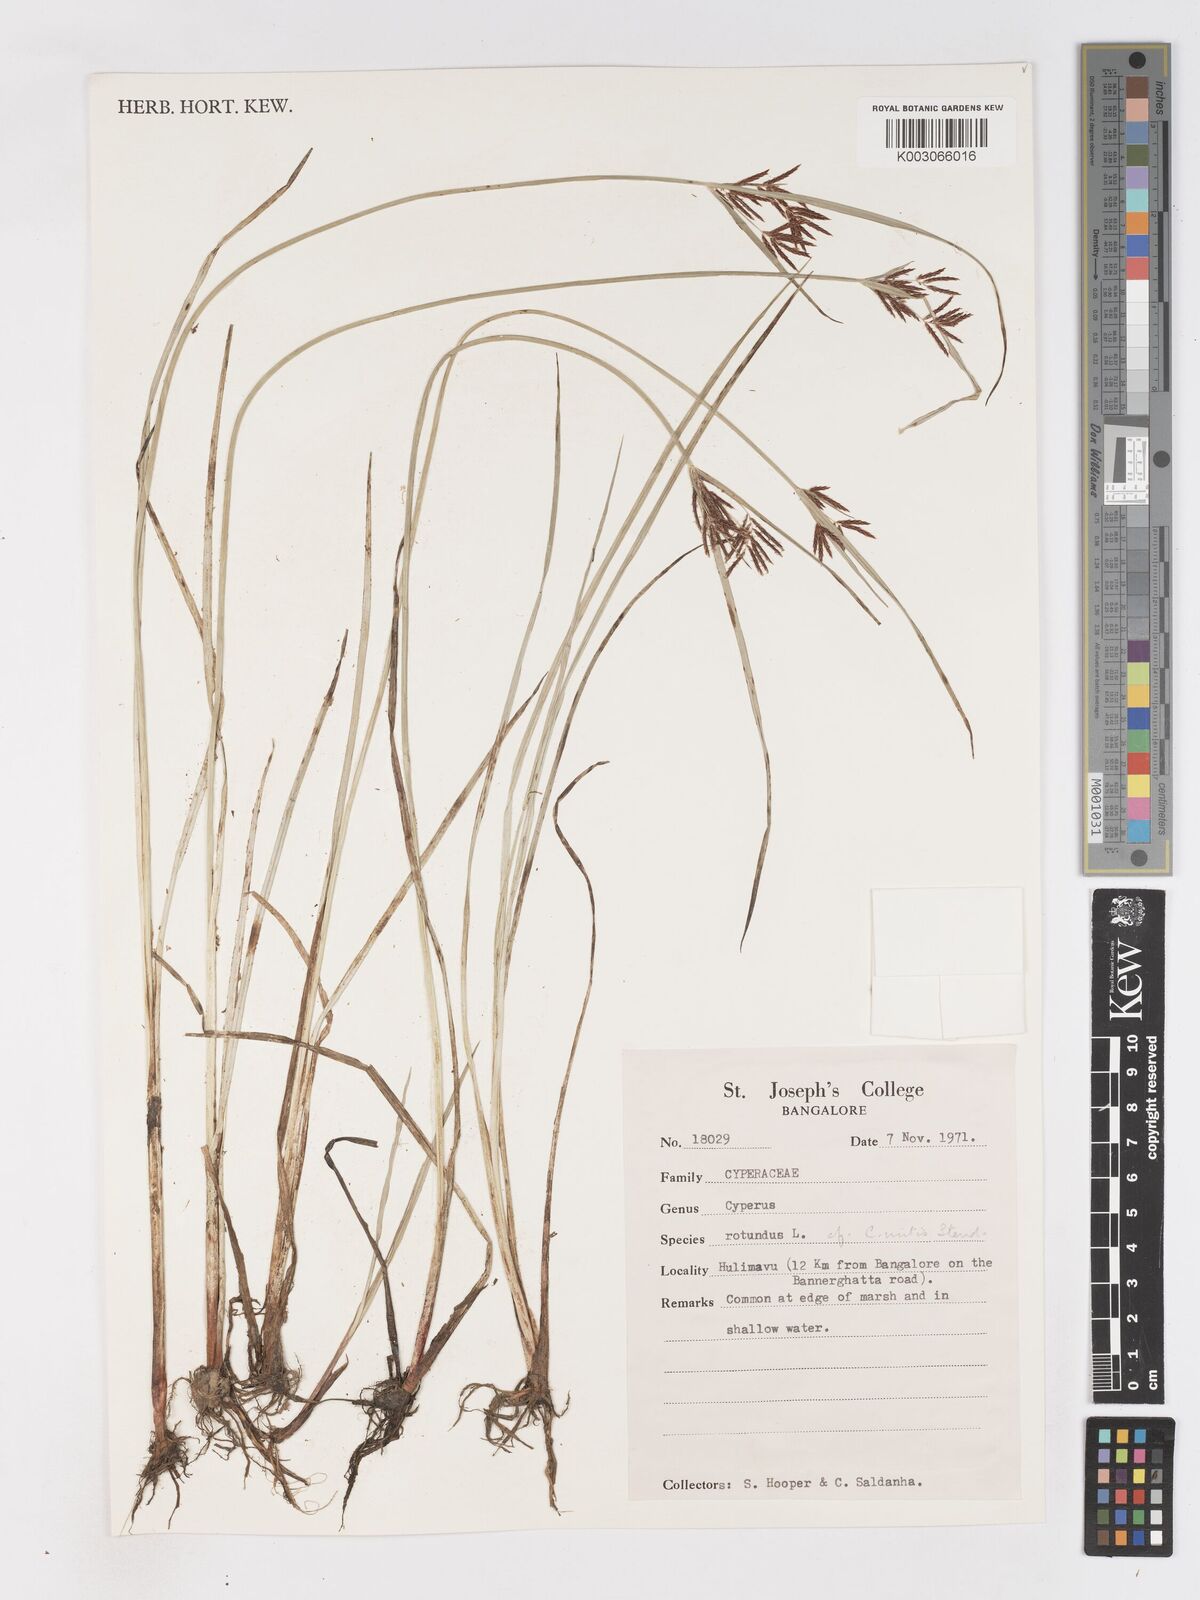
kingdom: Plantae
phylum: Tracheophyta
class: Liliopsida
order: Poales
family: Cyperaceae
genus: Cyperus
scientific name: Cyperus mitis
